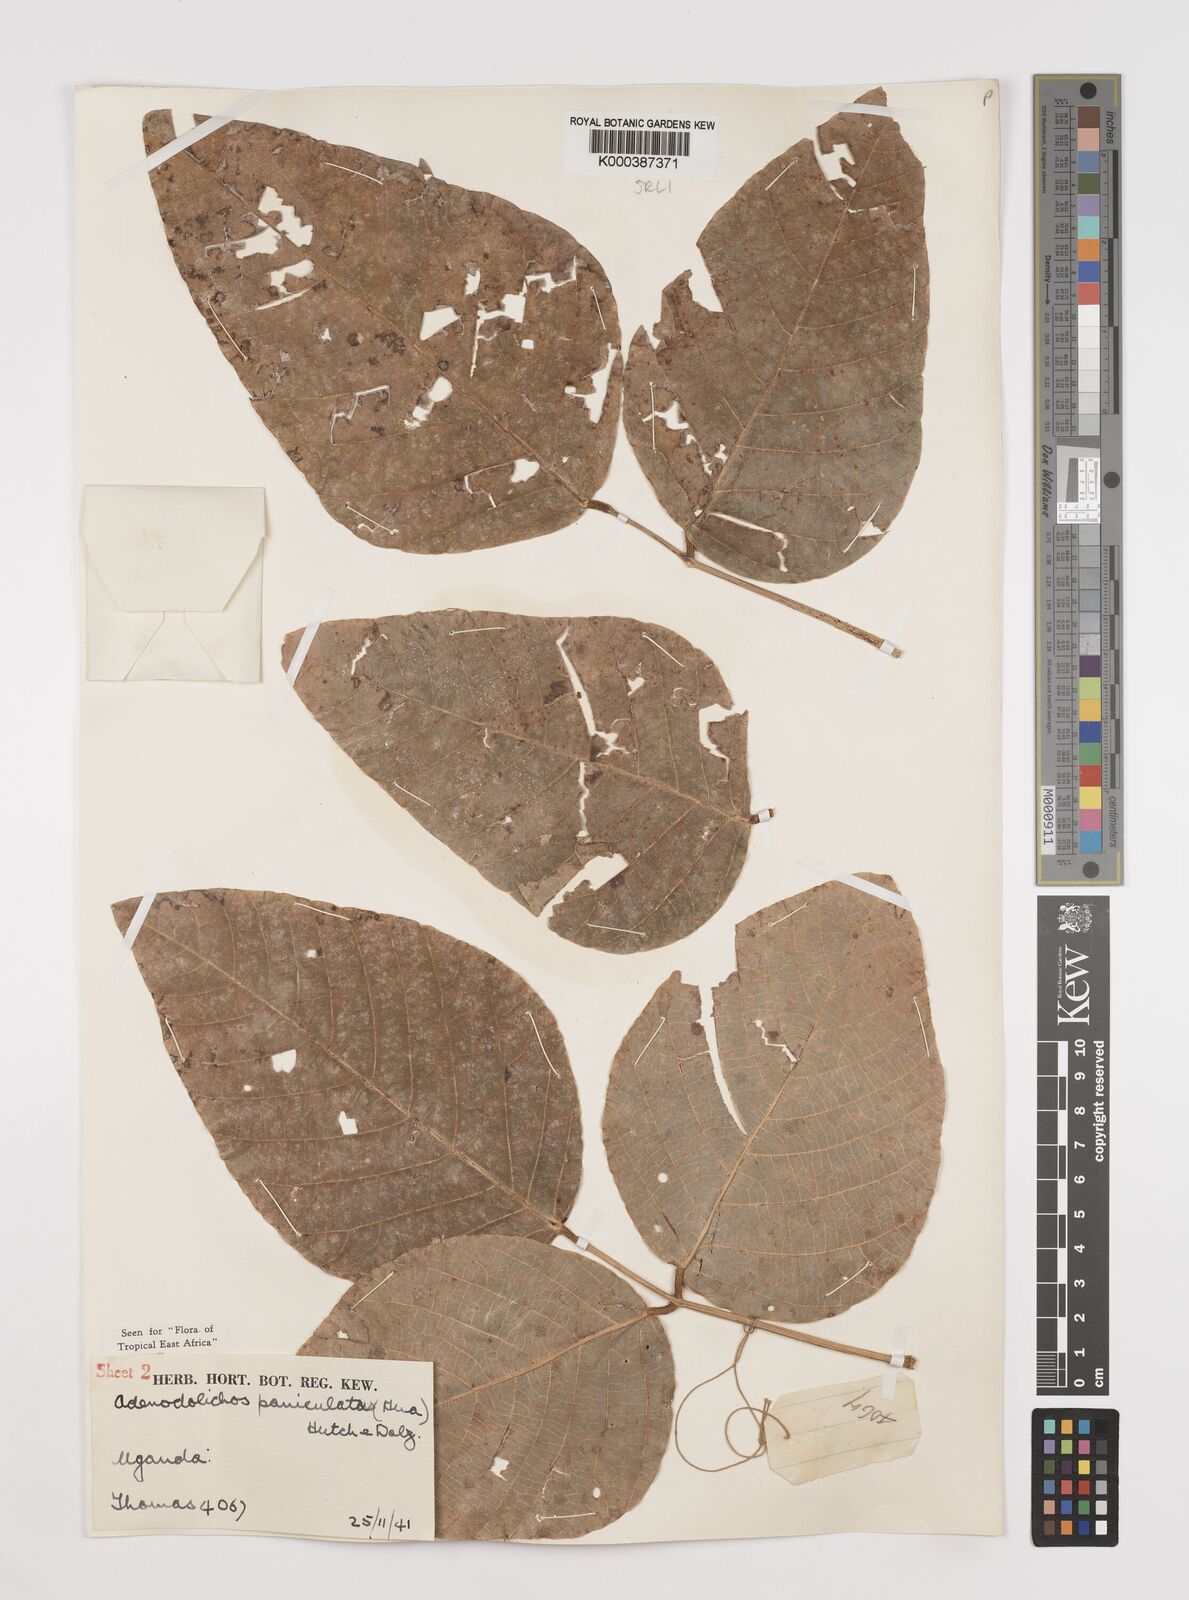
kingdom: Plantae
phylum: Tracheophyta
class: Magnoliopsida
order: Fabales
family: Fabaceae
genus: Adenodolichos
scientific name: Adenodolichos kaessneri
